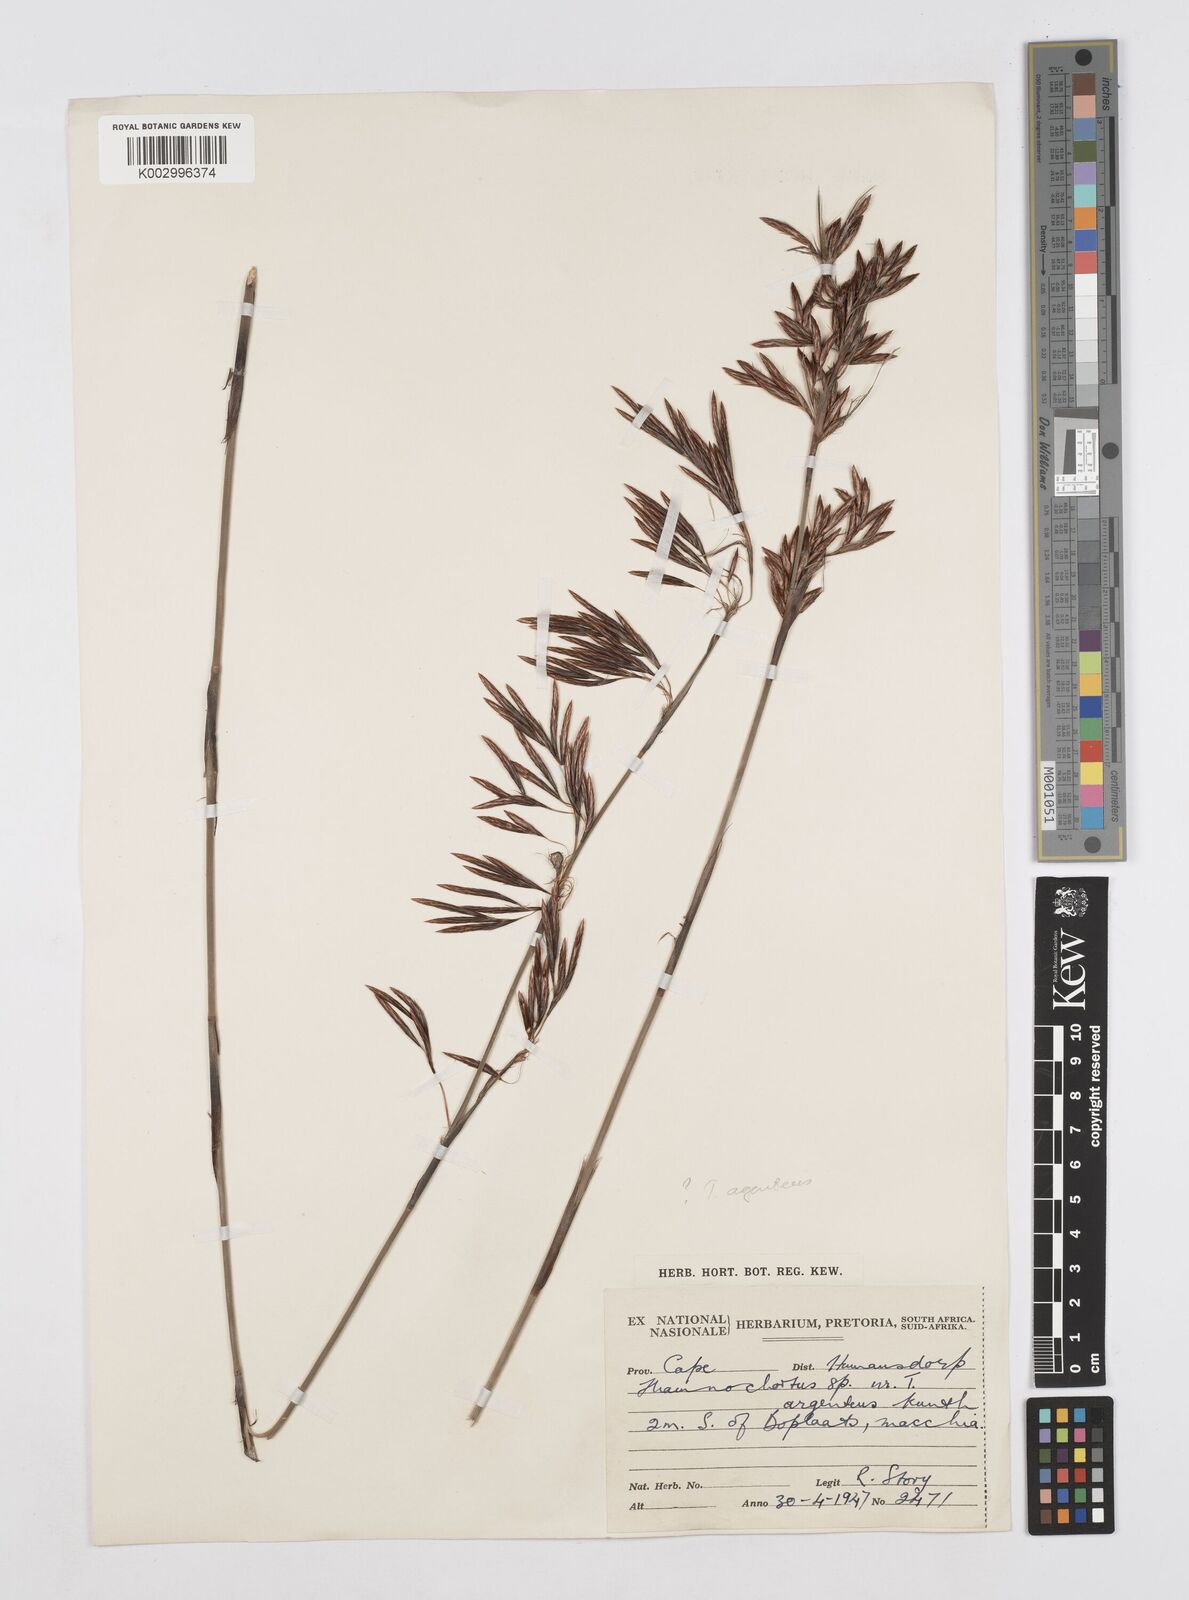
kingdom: Plantae
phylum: Tracheophyta
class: Liliopsida
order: Poales
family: Restionaceae
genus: Hypodiscus
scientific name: Hypodiscus argenteus
